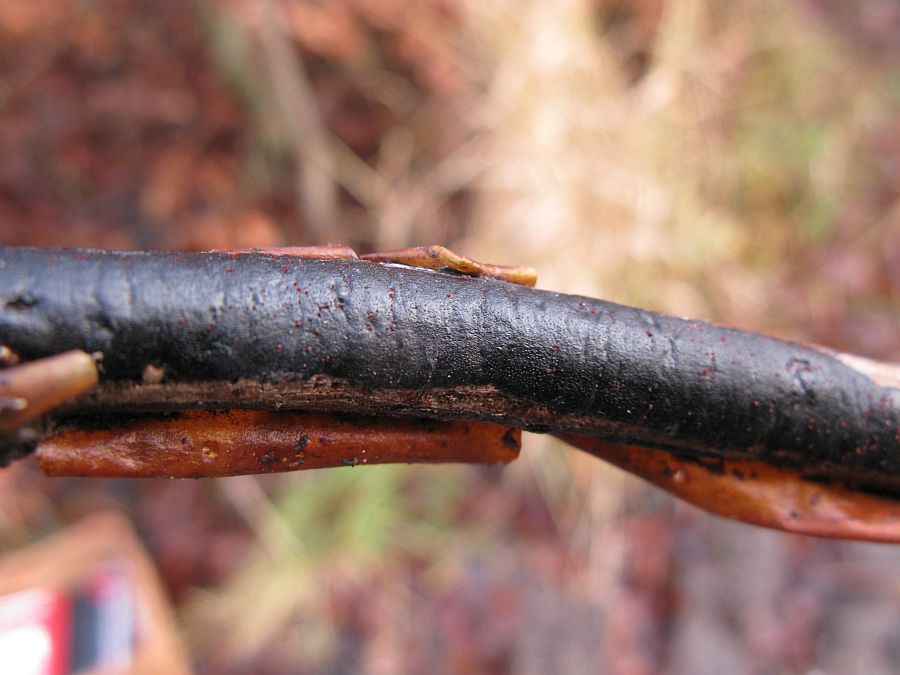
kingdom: Fungi
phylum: Ascomycota
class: Sordariomycetes
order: Xylariales
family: Diatrypaceae
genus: Diatrype
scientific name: Diatrype decorticata
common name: barksprænger-kulskorpe
